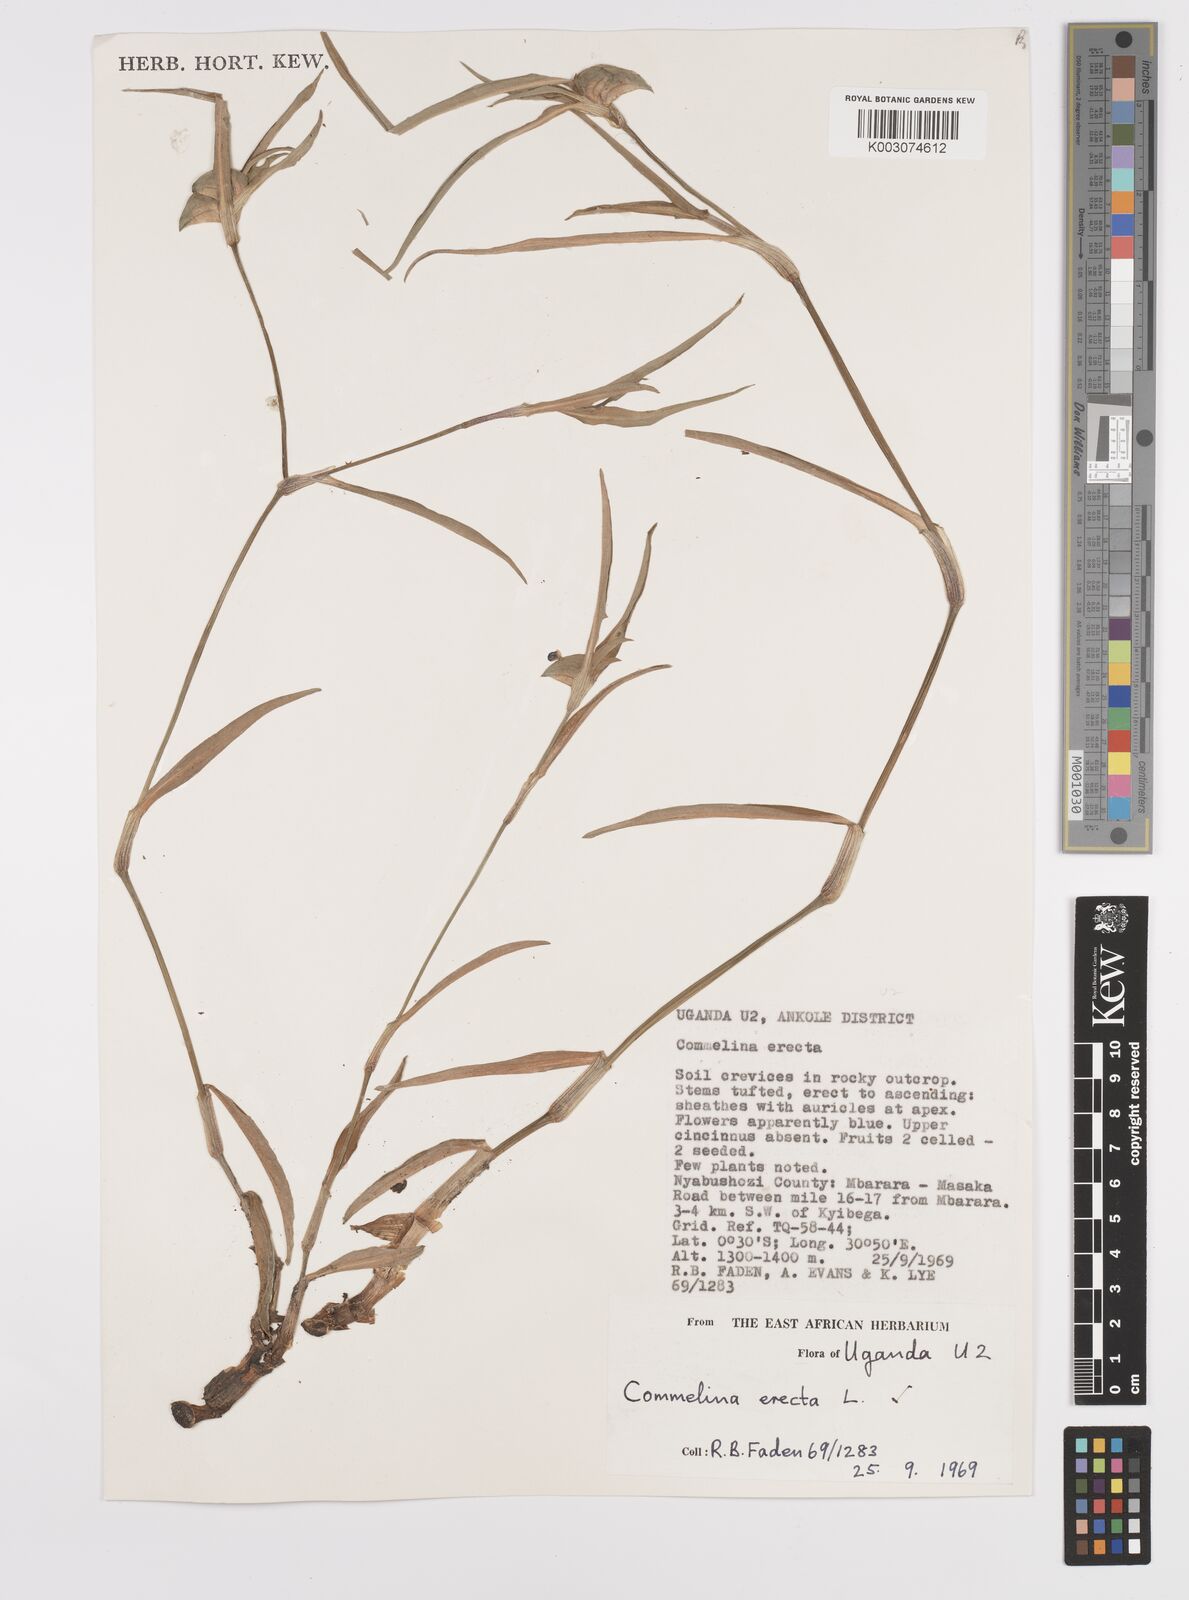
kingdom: Plantae
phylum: Tracheophyta
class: Liliopsida
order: Commelinales
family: Commelinaceae
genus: Commelina
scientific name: Commelina erecta
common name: Blousel blommetjie
